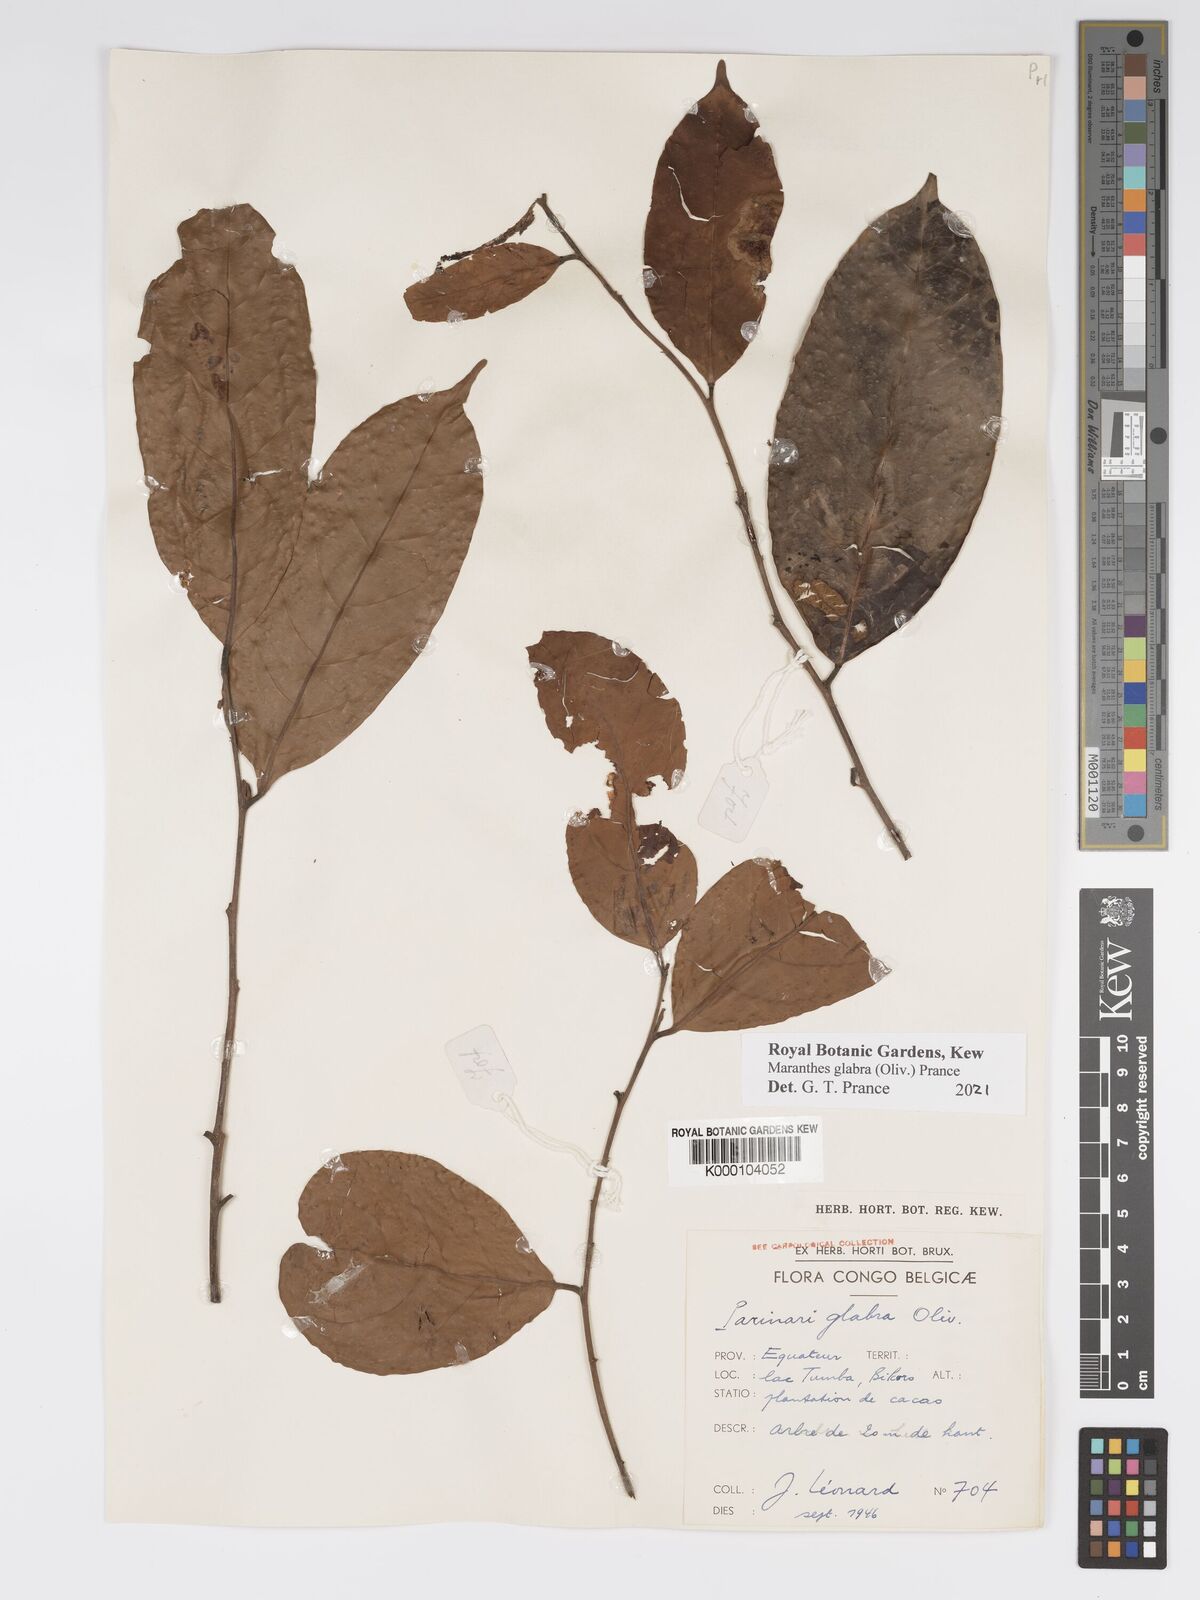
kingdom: Plantae
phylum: Tracheophyta
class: Magnoliopsida
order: Malpighiales
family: Chrysobalanaceae
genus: Maranthes
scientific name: Maranthes glabra
